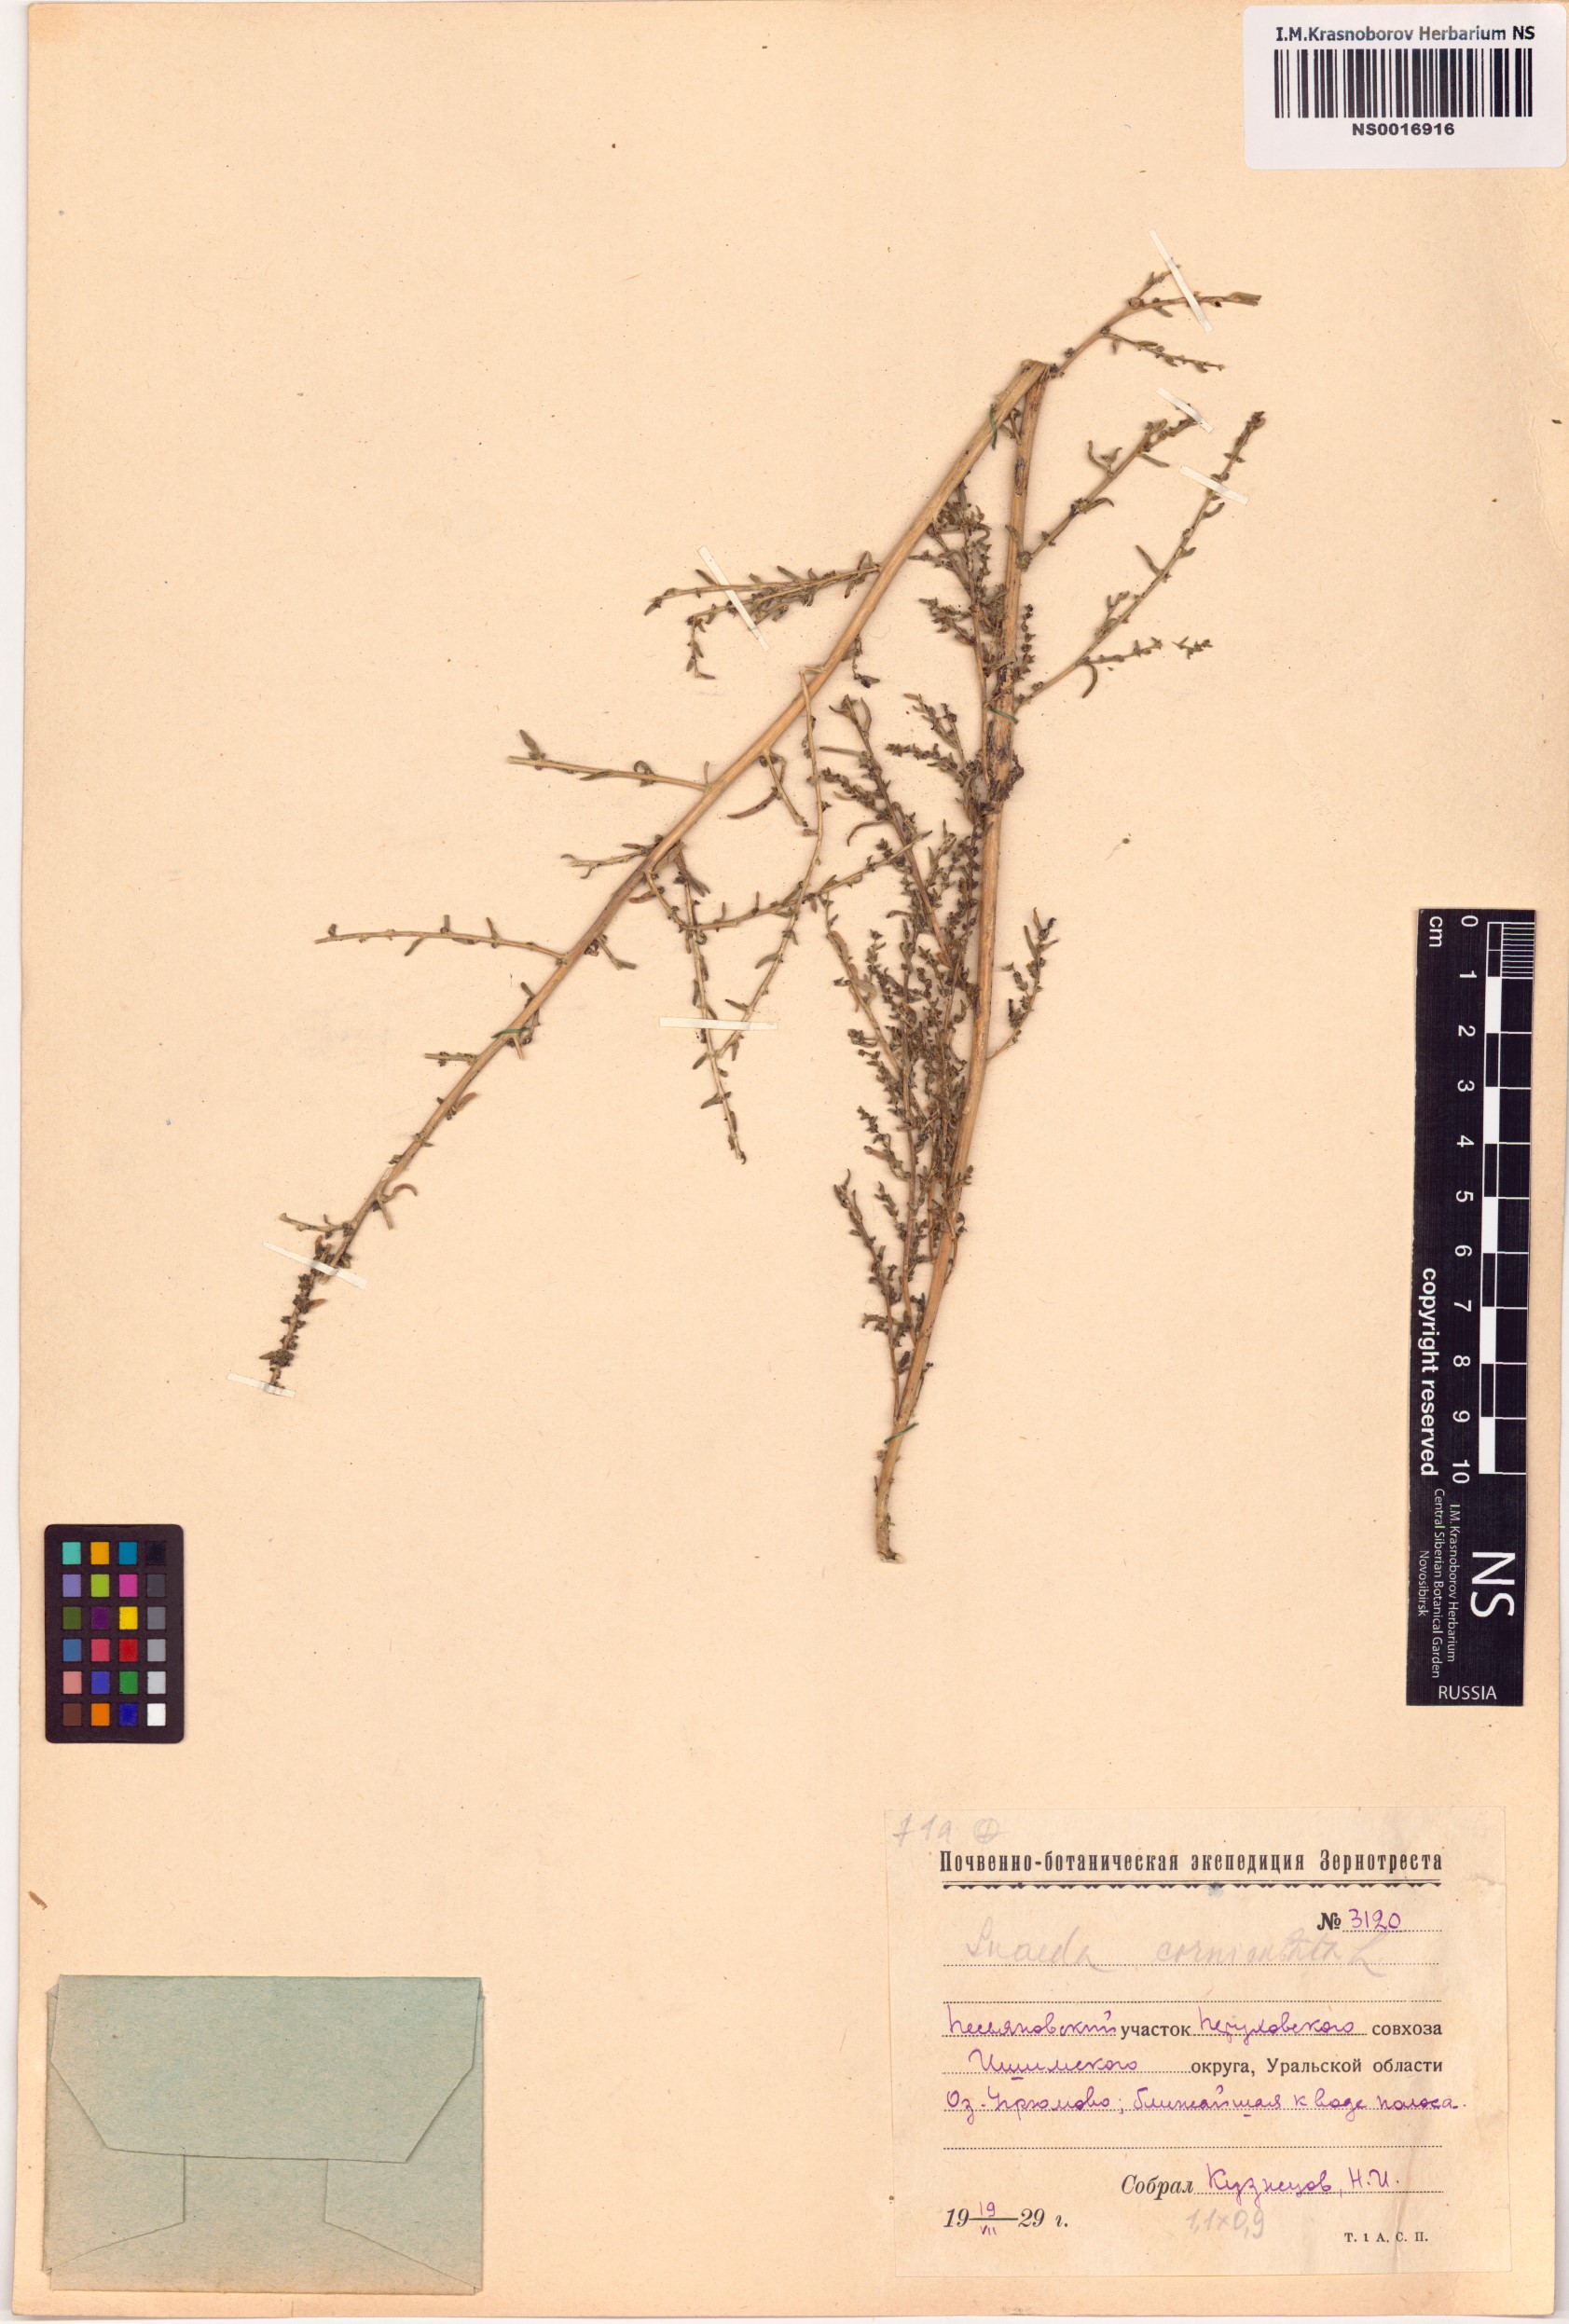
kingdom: Plantae
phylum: Tracheophyta
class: Magnoliopsida
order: Caryophyllales
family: Amaranthaceae
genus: Suaeda
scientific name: Suaeda corniculata
